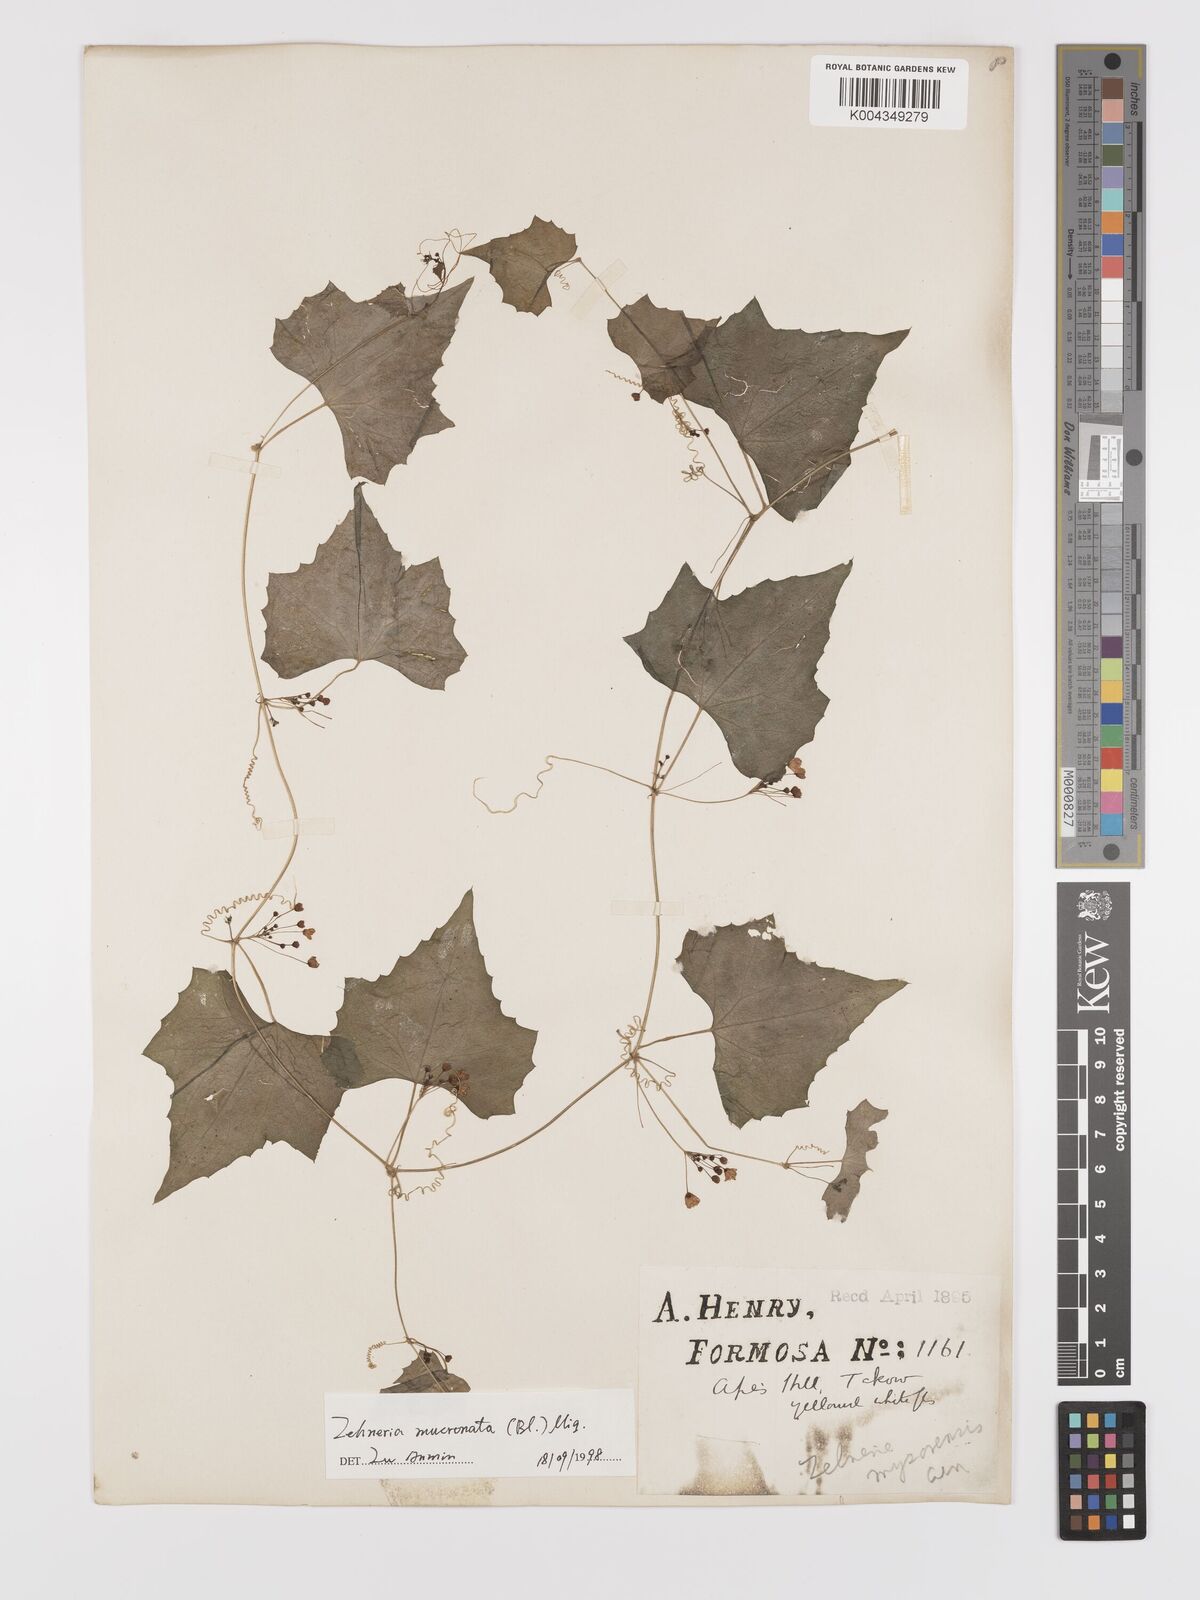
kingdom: Plantae
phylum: Tracheophyta
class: Magnoliopsida
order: Cucurbitales
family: Cucurbitaceae
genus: Zehneria
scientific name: Zehneria mucronata
